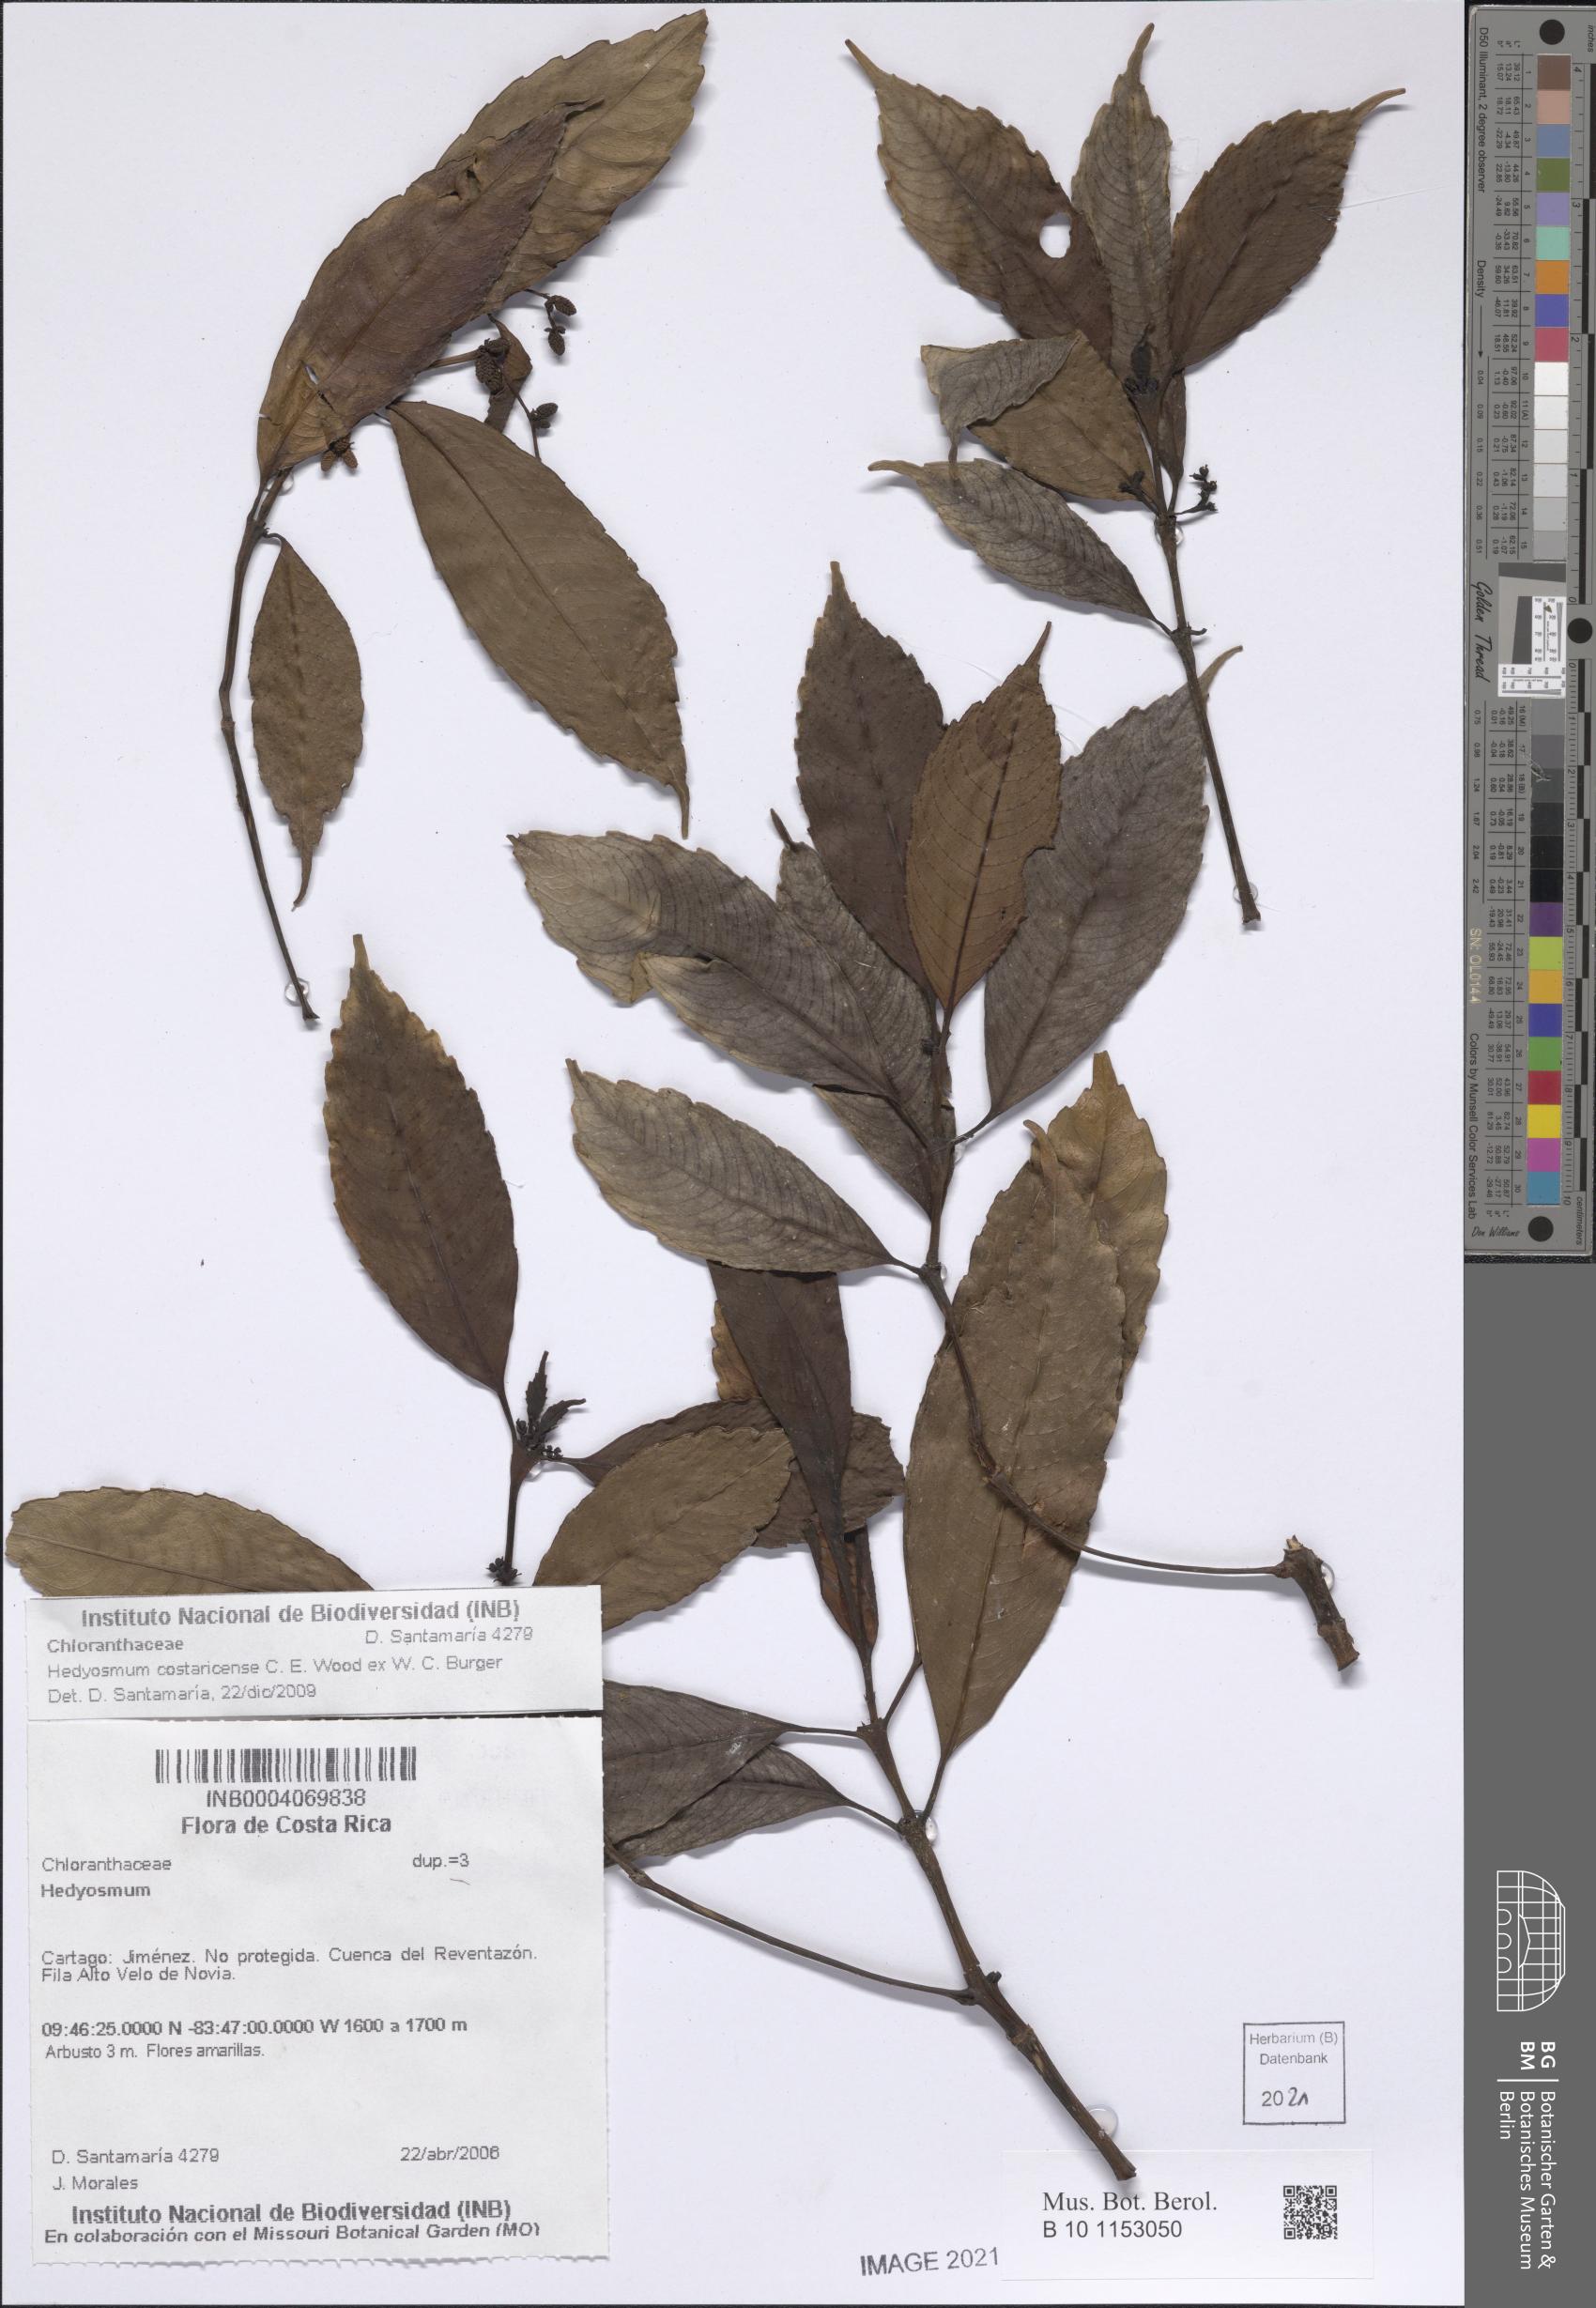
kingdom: Plantae
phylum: Tracheophyta
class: Magnoliopsida
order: Chloranthales
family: Chloranthaceae
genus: Hedyosmum
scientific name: Hedyosmum costaricense
